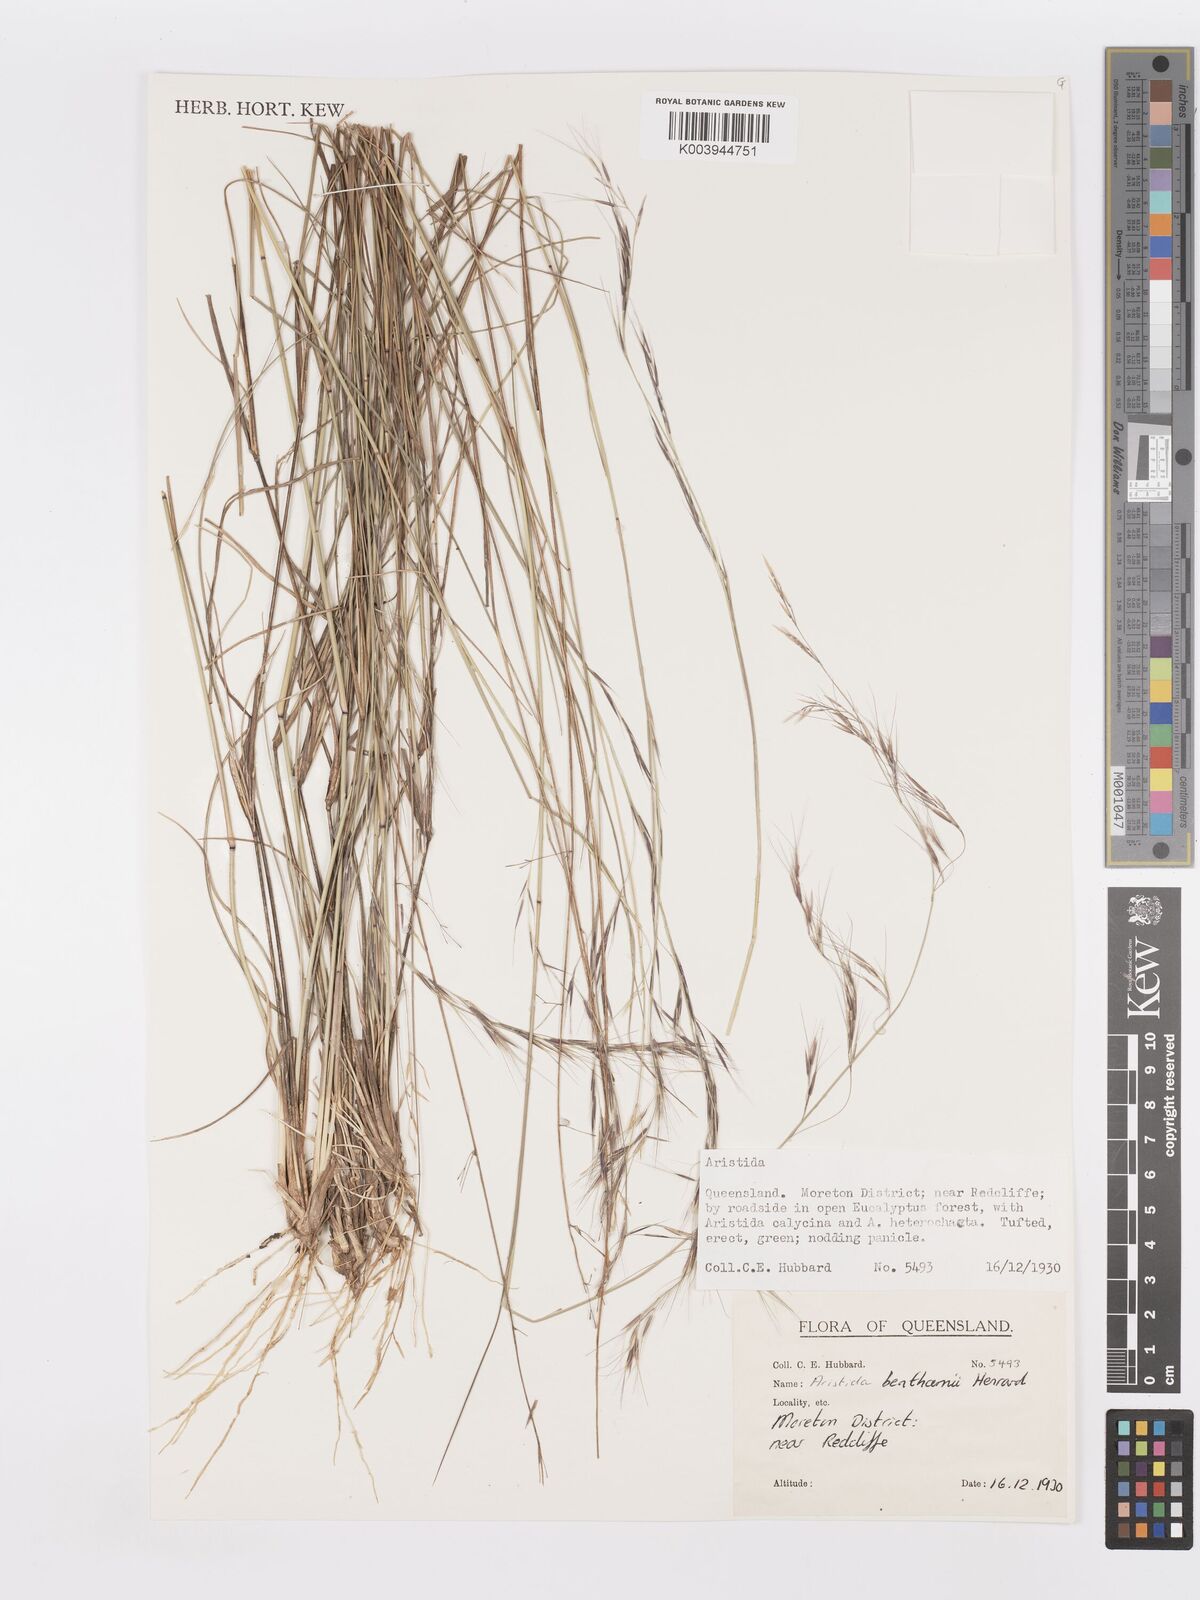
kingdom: Plantae
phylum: Tracheophyta
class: Liliopsida
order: Poales
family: Poaceae
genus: Aristida
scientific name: Aristida benthamii
